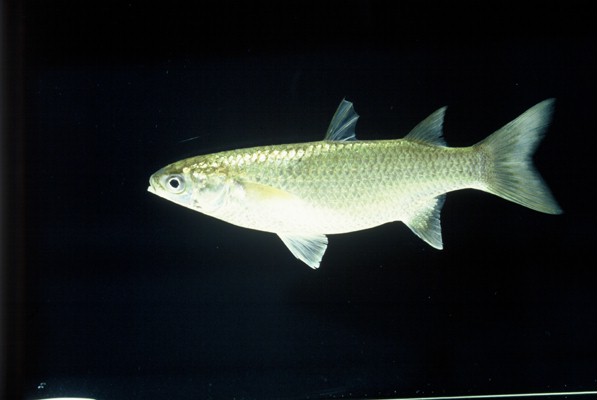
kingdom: Animalia
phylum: Chordata
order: Mugiliformes
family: Mugilidae
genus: Planiliza
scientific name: Planiliza macrolepis
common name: Largescale mullet
